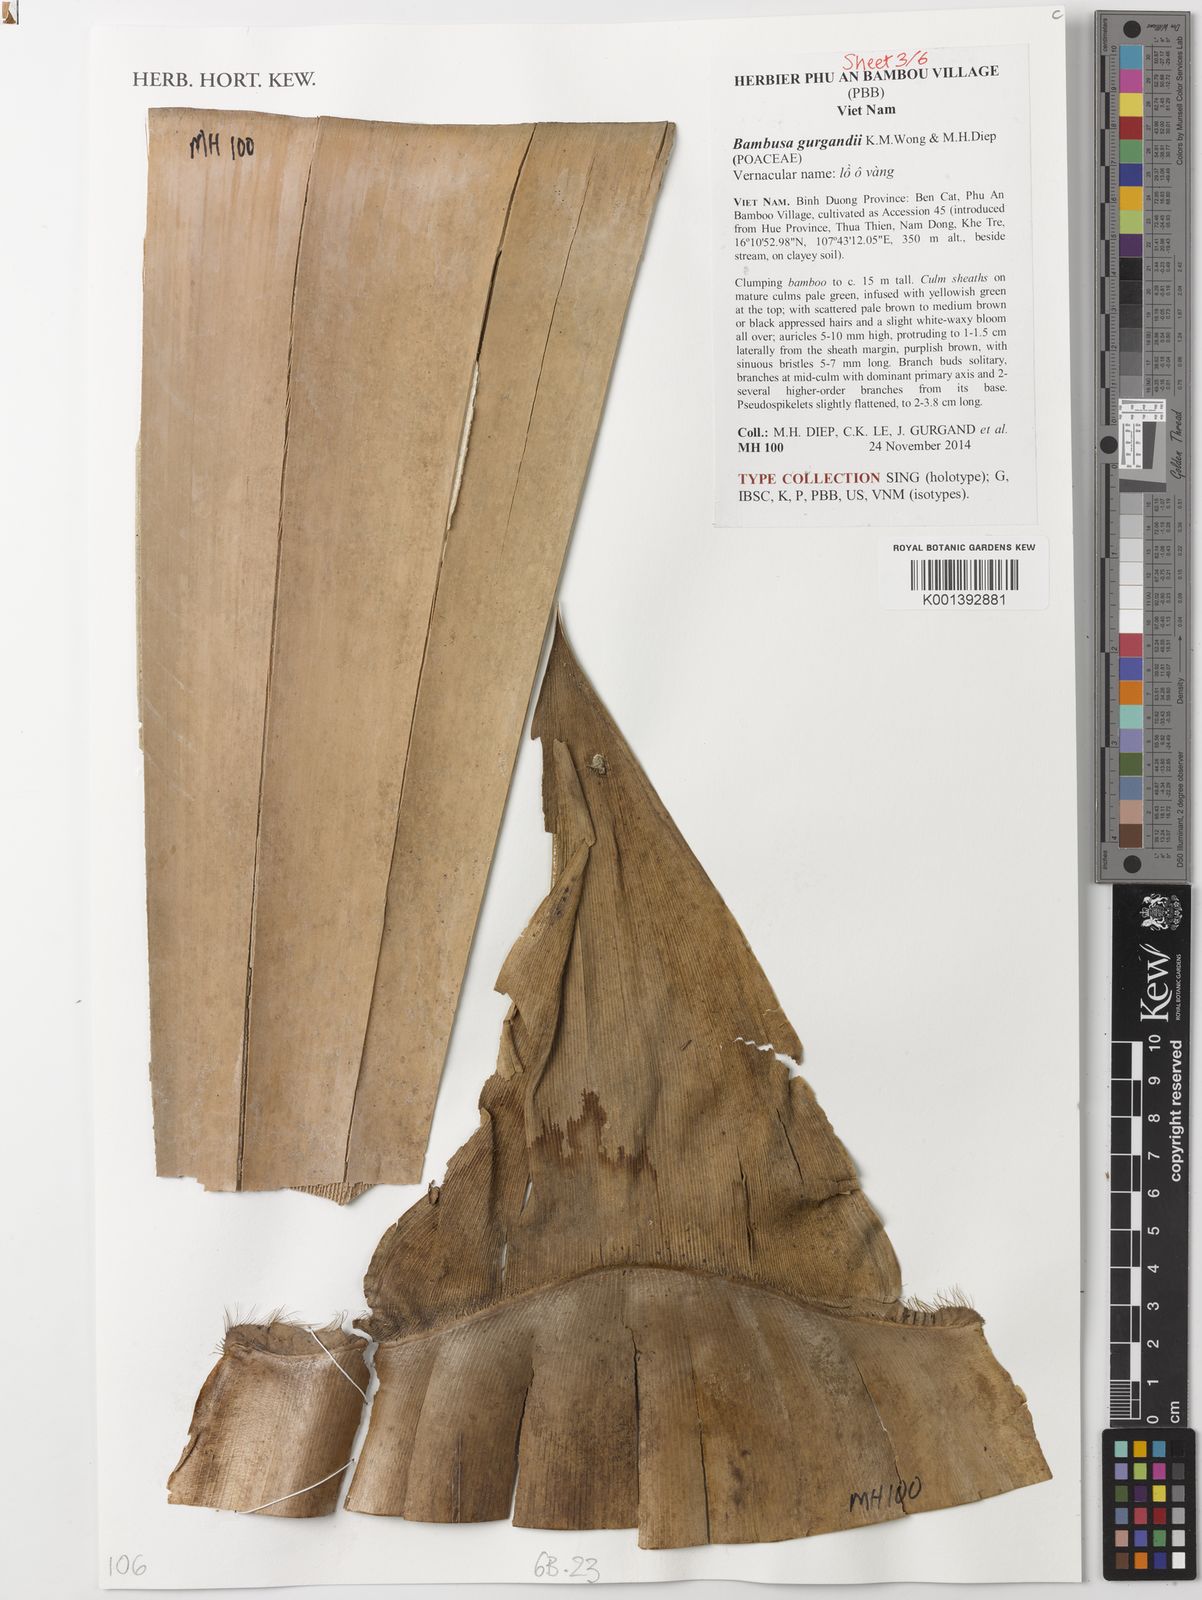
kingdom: Plantae
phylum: Tracheophyta
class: Liliopsida
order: Poales
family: Poaceae
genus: Bambusa
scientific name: Bambusa gurgandii
